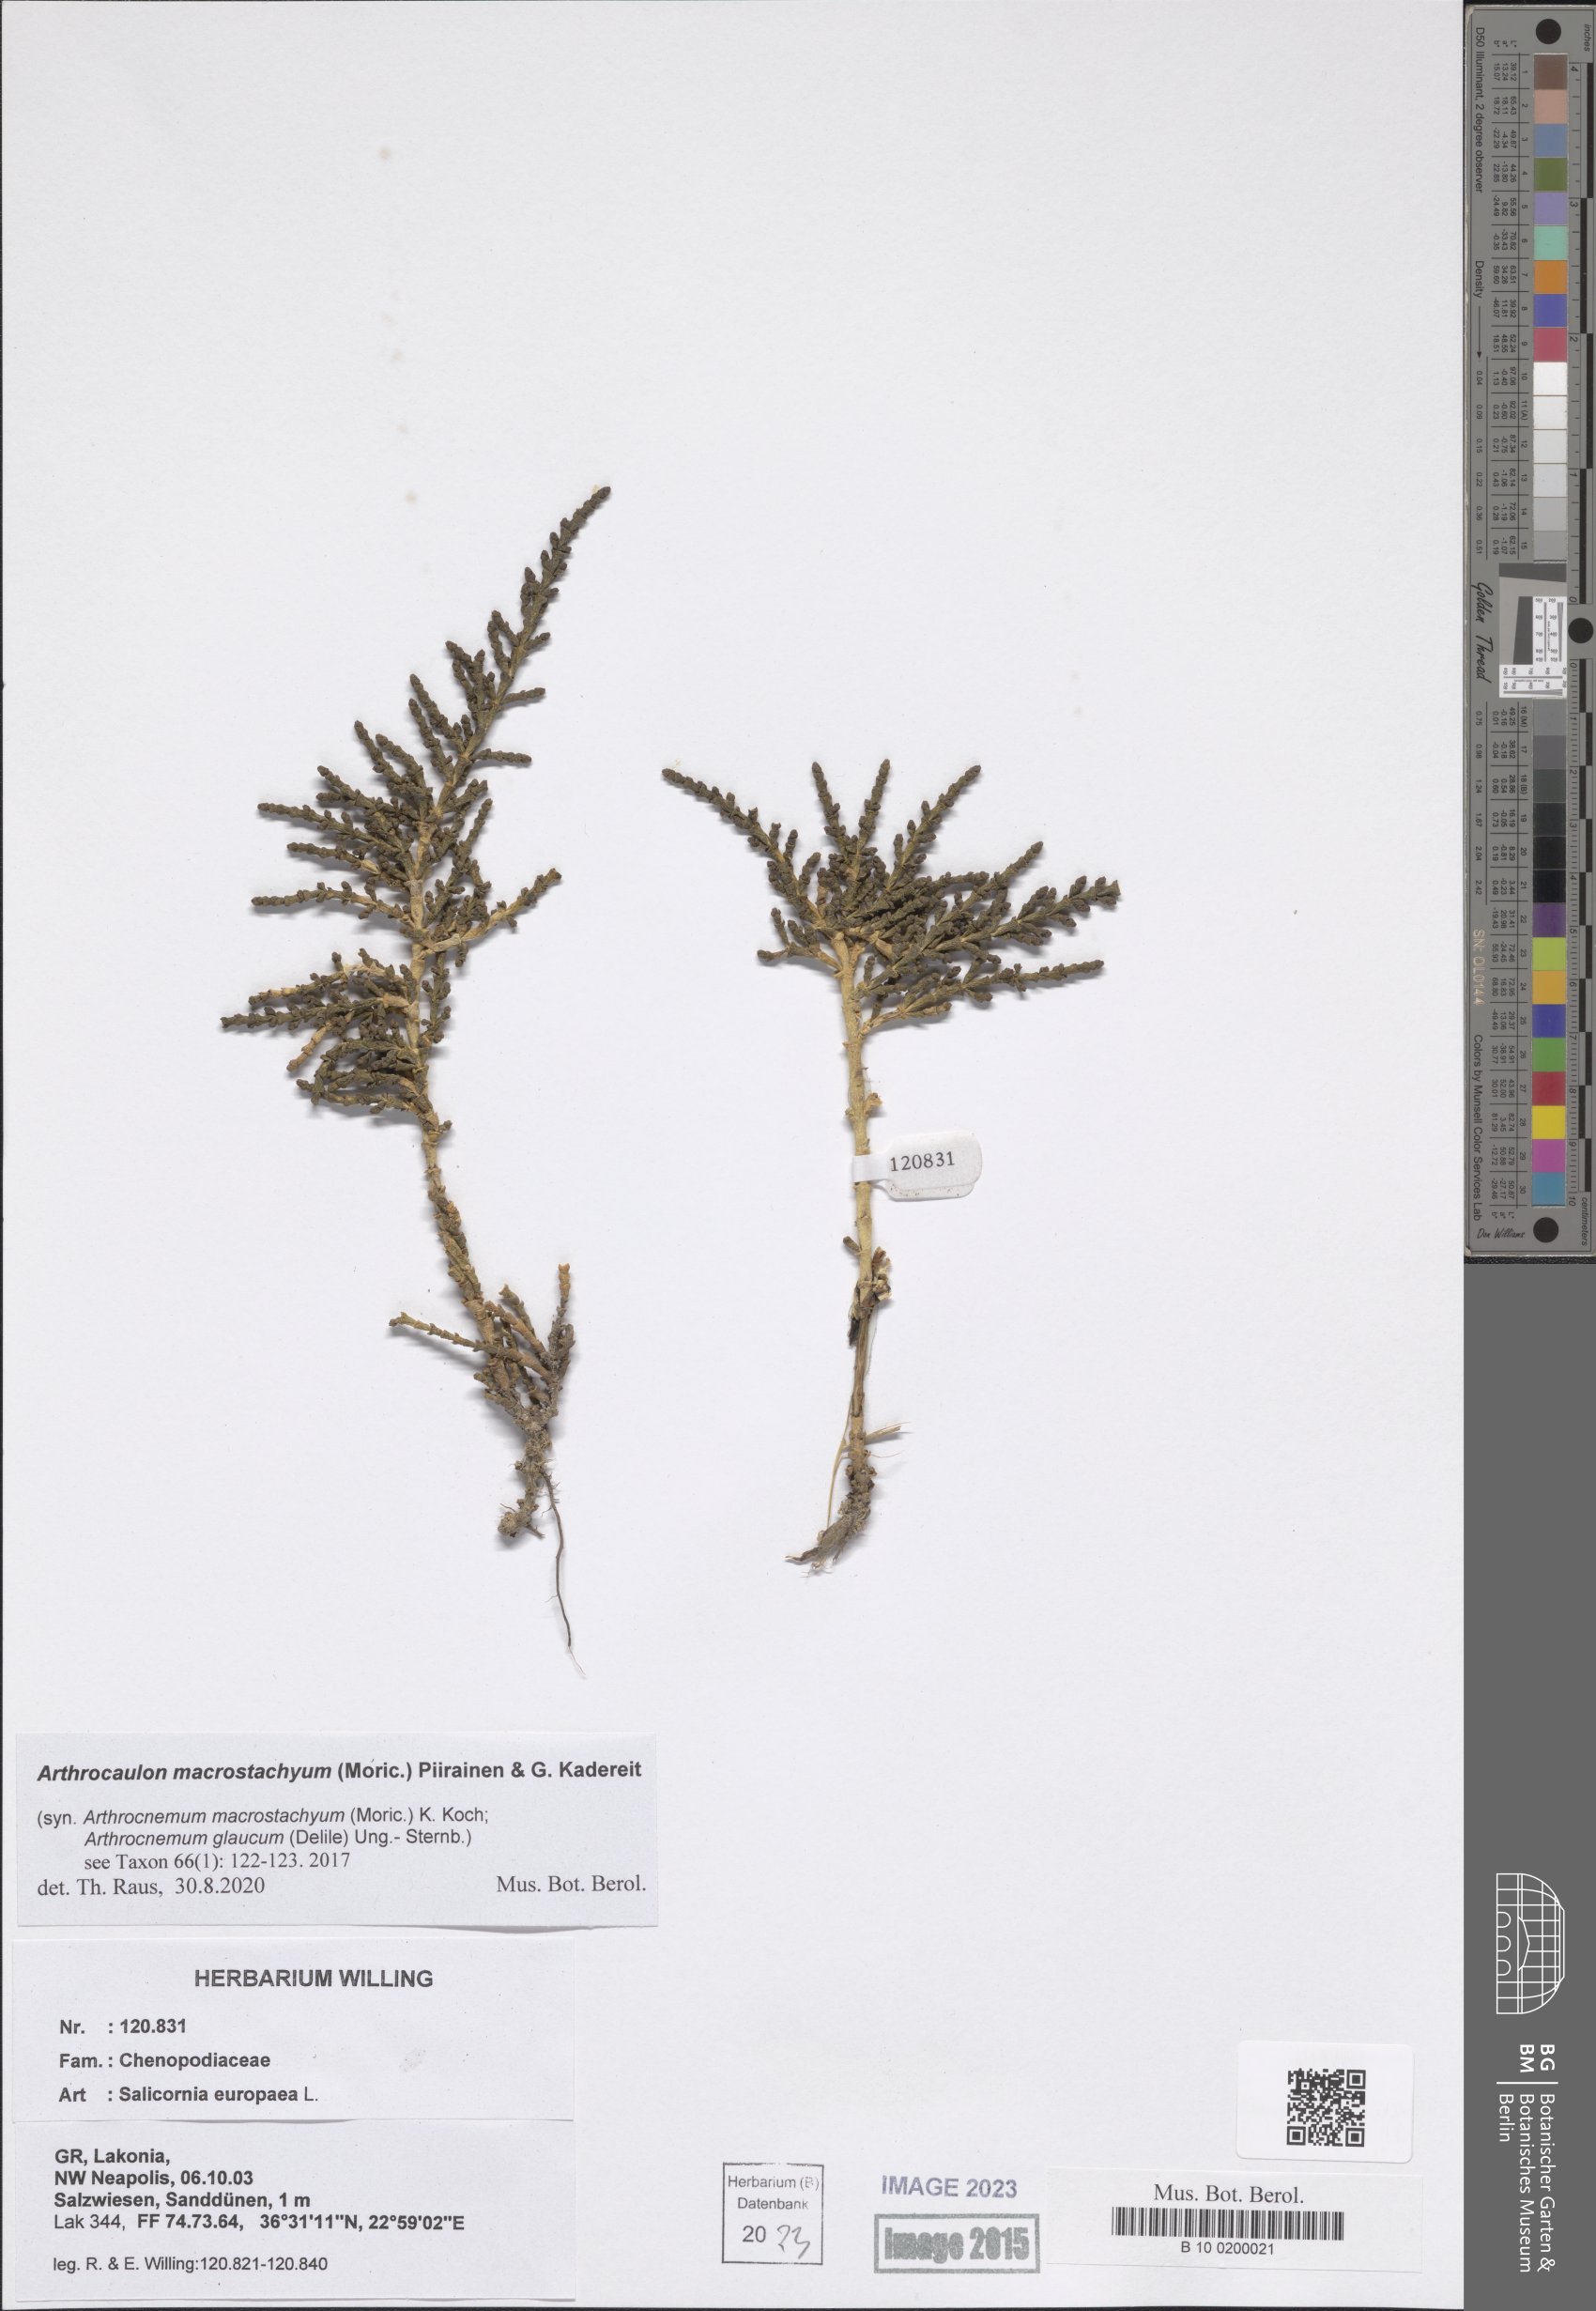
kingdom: Plantae
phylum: Tracheophyta
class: Magnoliopsida
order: Caryophyllales
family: Amaranthaceae
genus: Salicornia
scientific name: Salicornia europaea
